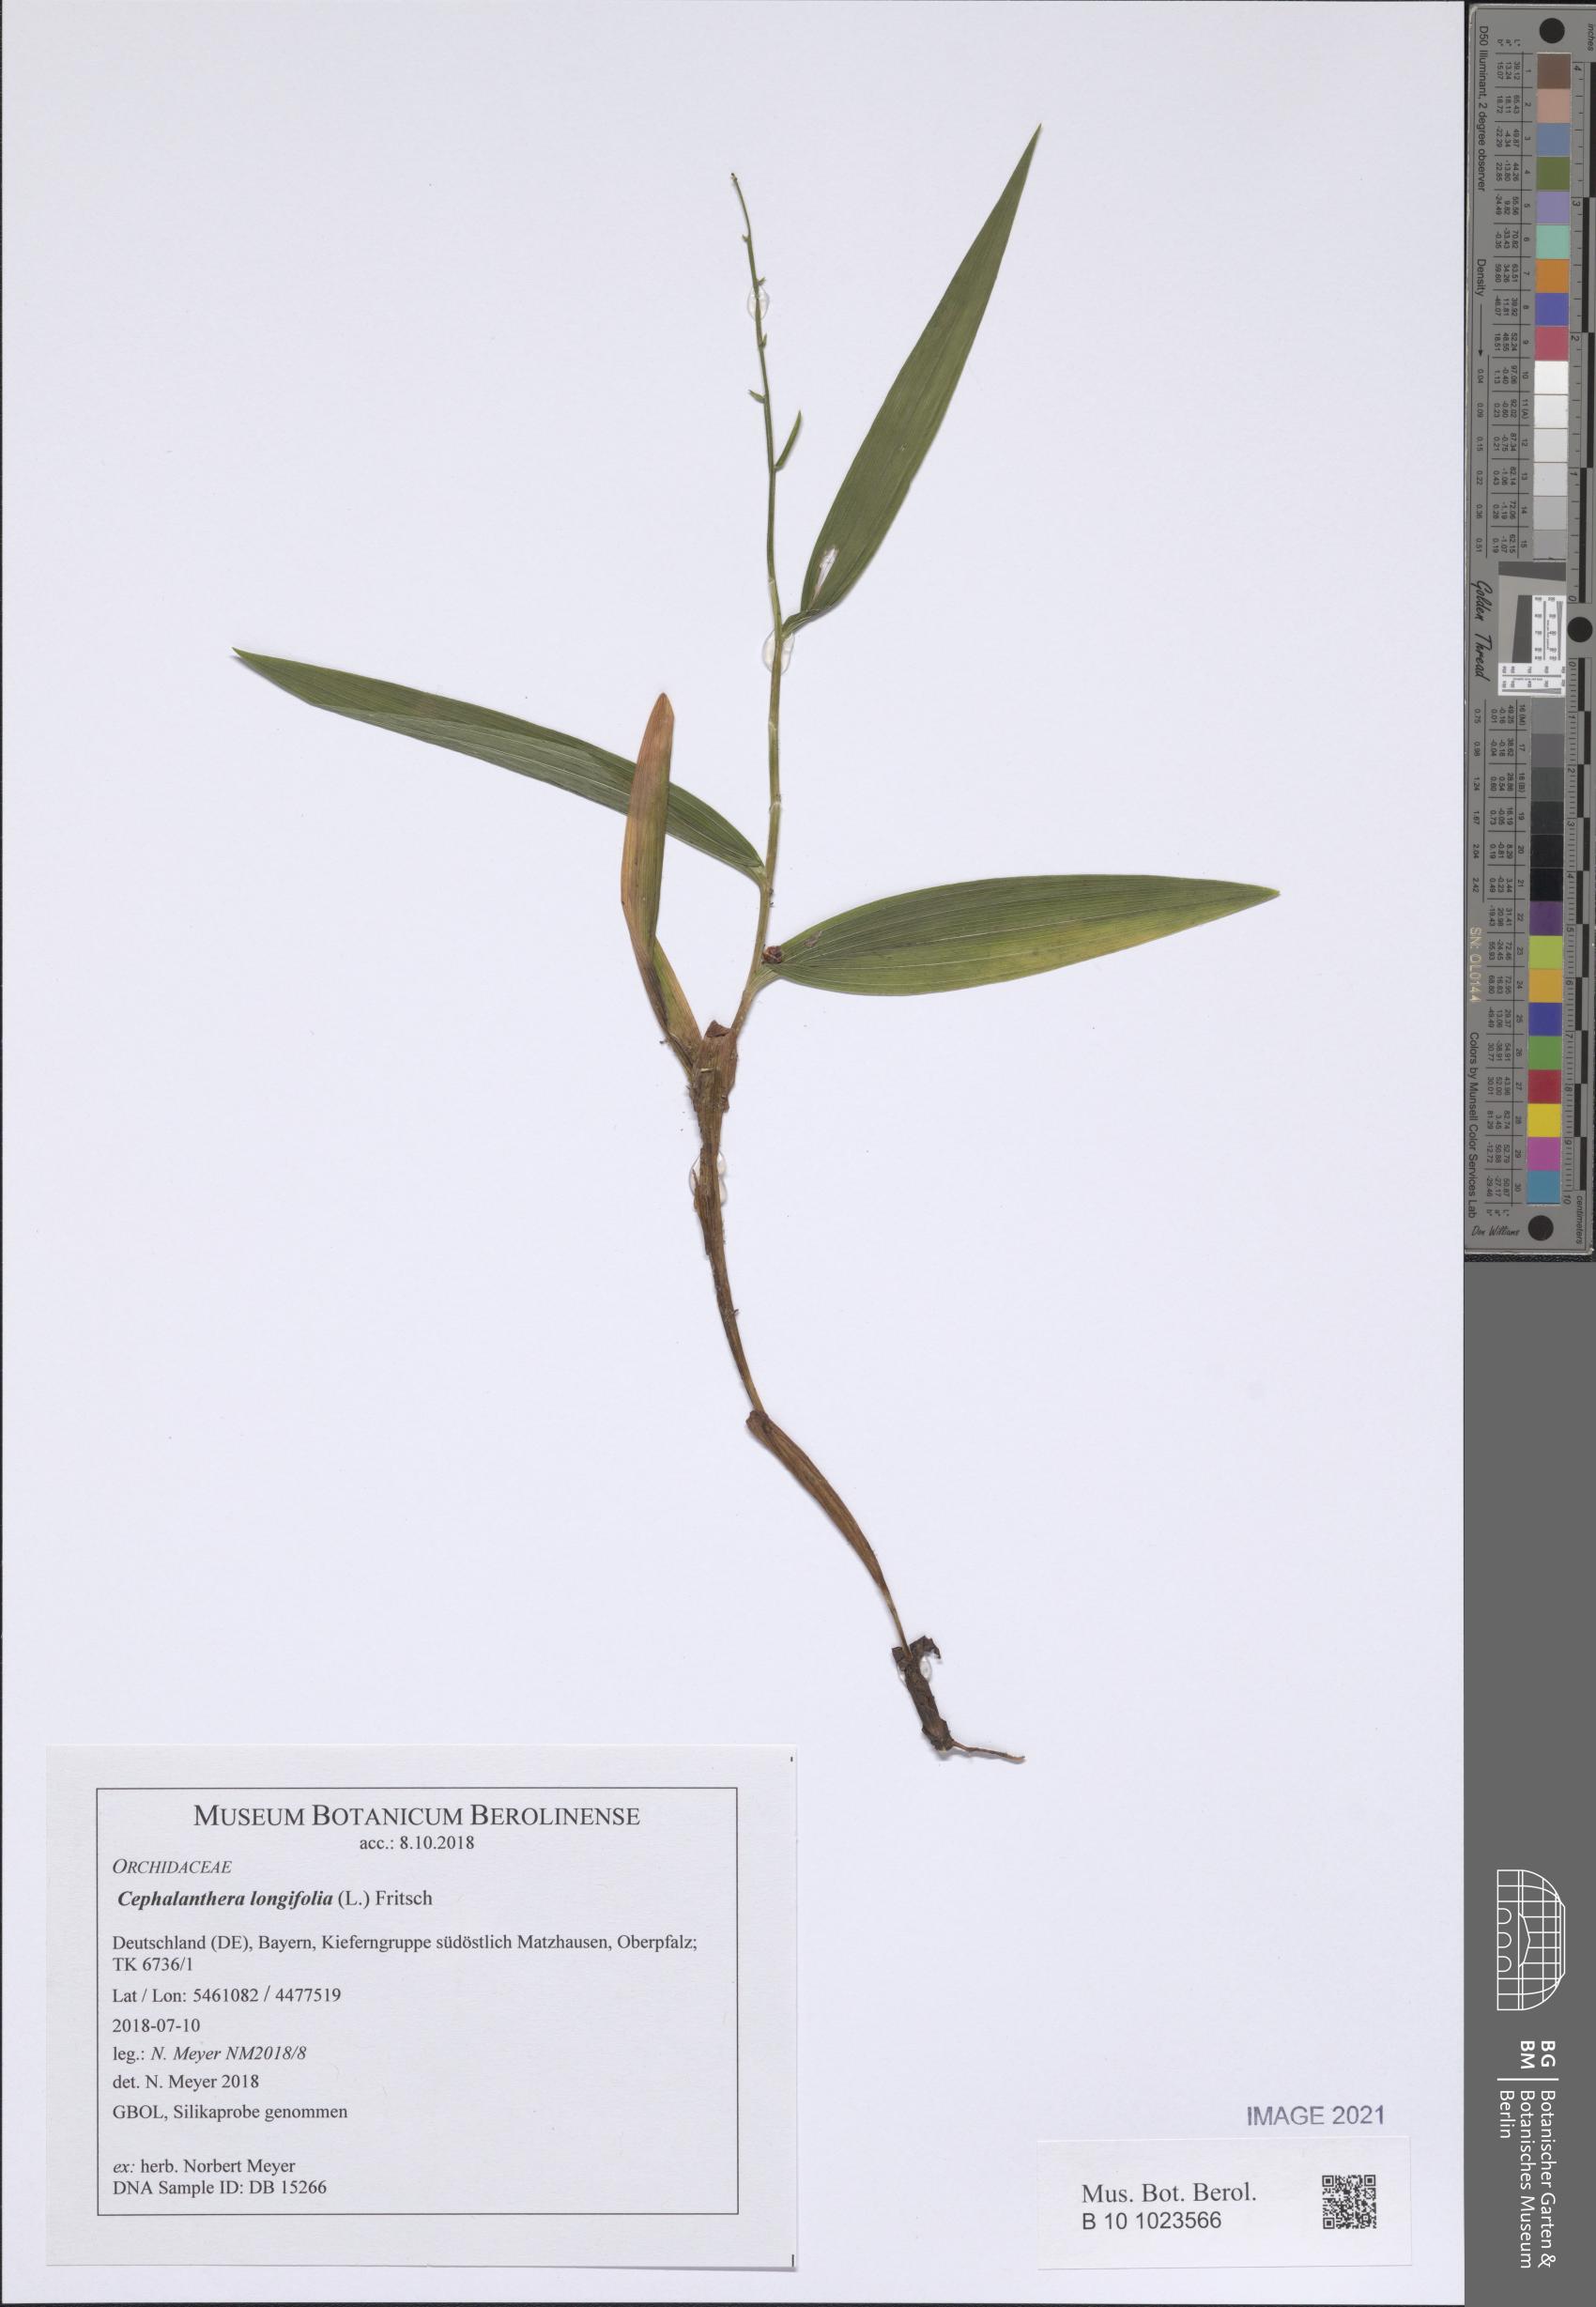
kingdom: Plantae
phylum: Tracheophyta
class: Liliopsida
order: Asparagales
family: Orchidaceae
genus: Cephalanthera
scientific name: Cephalanthera longifolia
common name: Narrow-leaved helleborine
